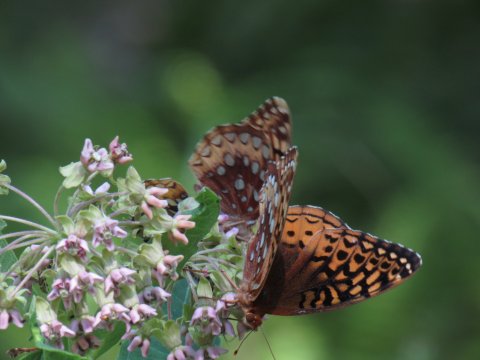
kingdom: Animalia
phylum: Arthropoda
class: Insecta
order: Lepidoptera
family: Nymphalidae
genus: Speyeria
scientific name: Speyeria cybele
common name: Great Spangled Fritillary
